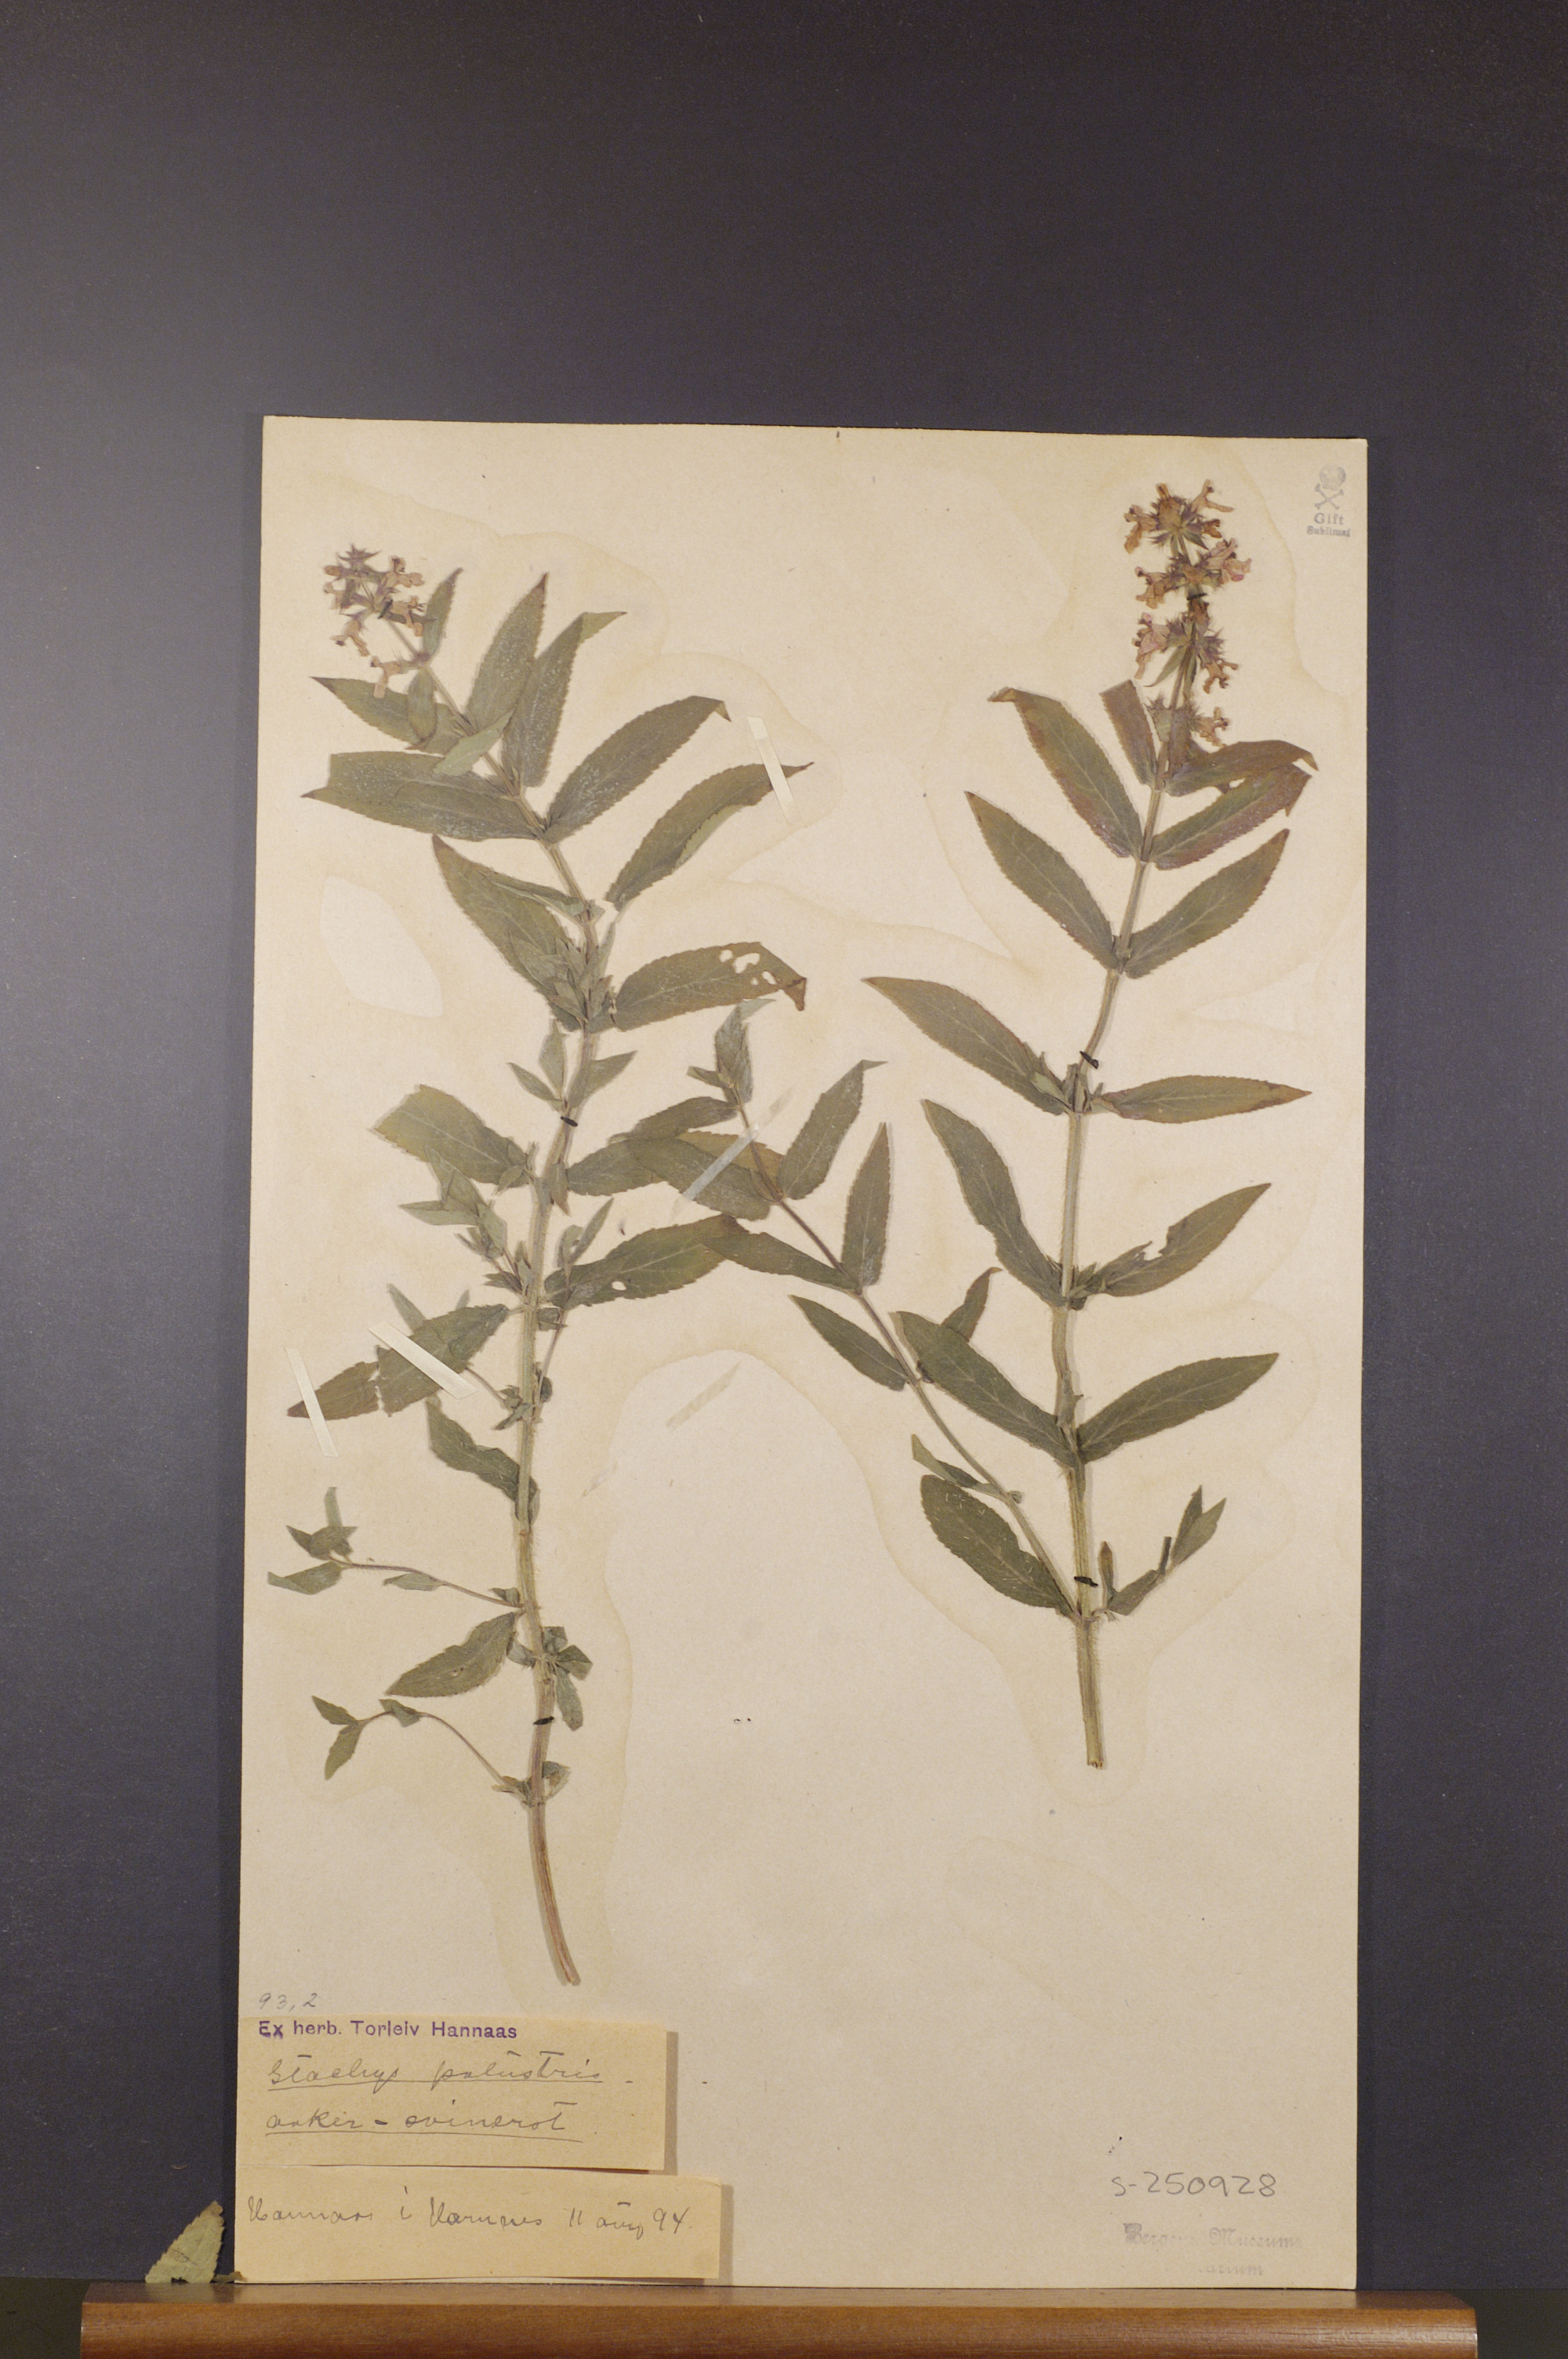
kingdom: Plantae
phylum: Tracheophyta
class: Magnoliopsida
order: Lamiales
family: Lamiaceae
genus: Stachys
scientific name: Stachys palustris
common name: Marsh woundwort
